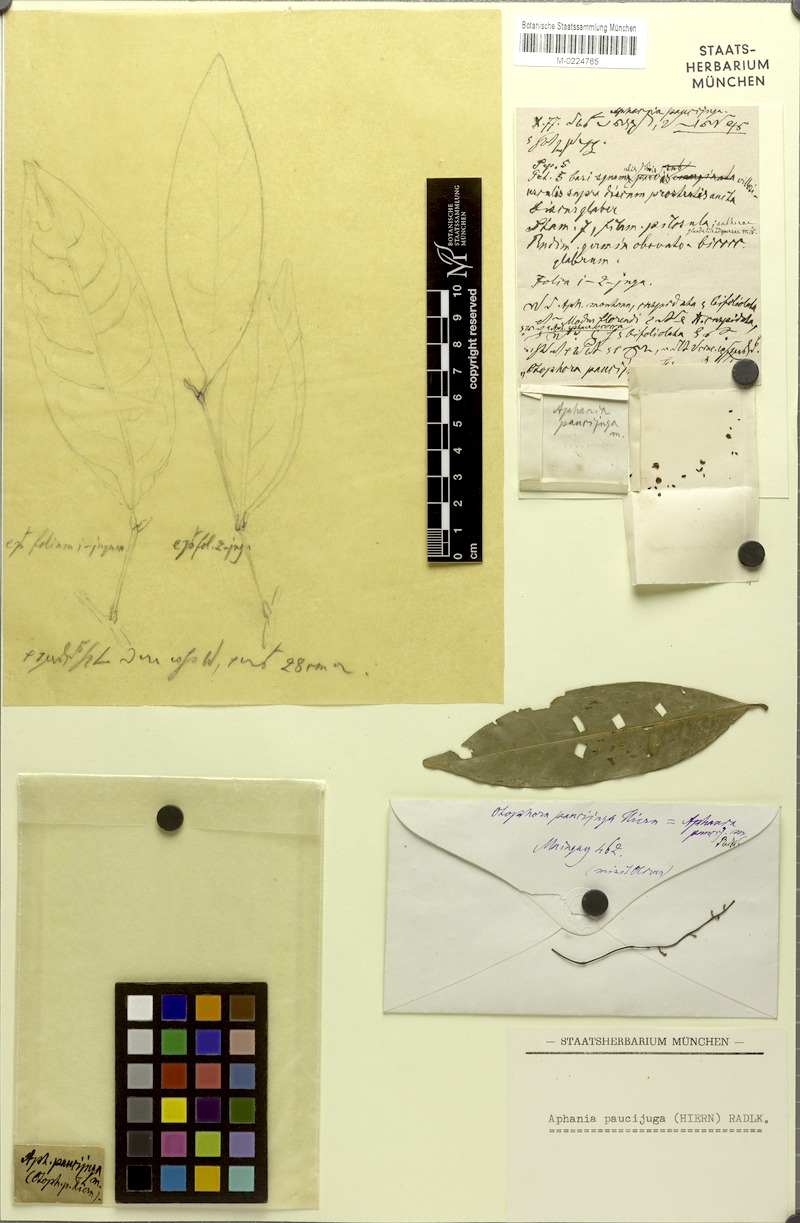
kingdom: Plantae
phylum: Tracheophyta
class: Magnoliopsida
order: Sapindales
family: Sapindaceae
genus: Lepisanthes
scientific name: Lepisanthes senegalensis
